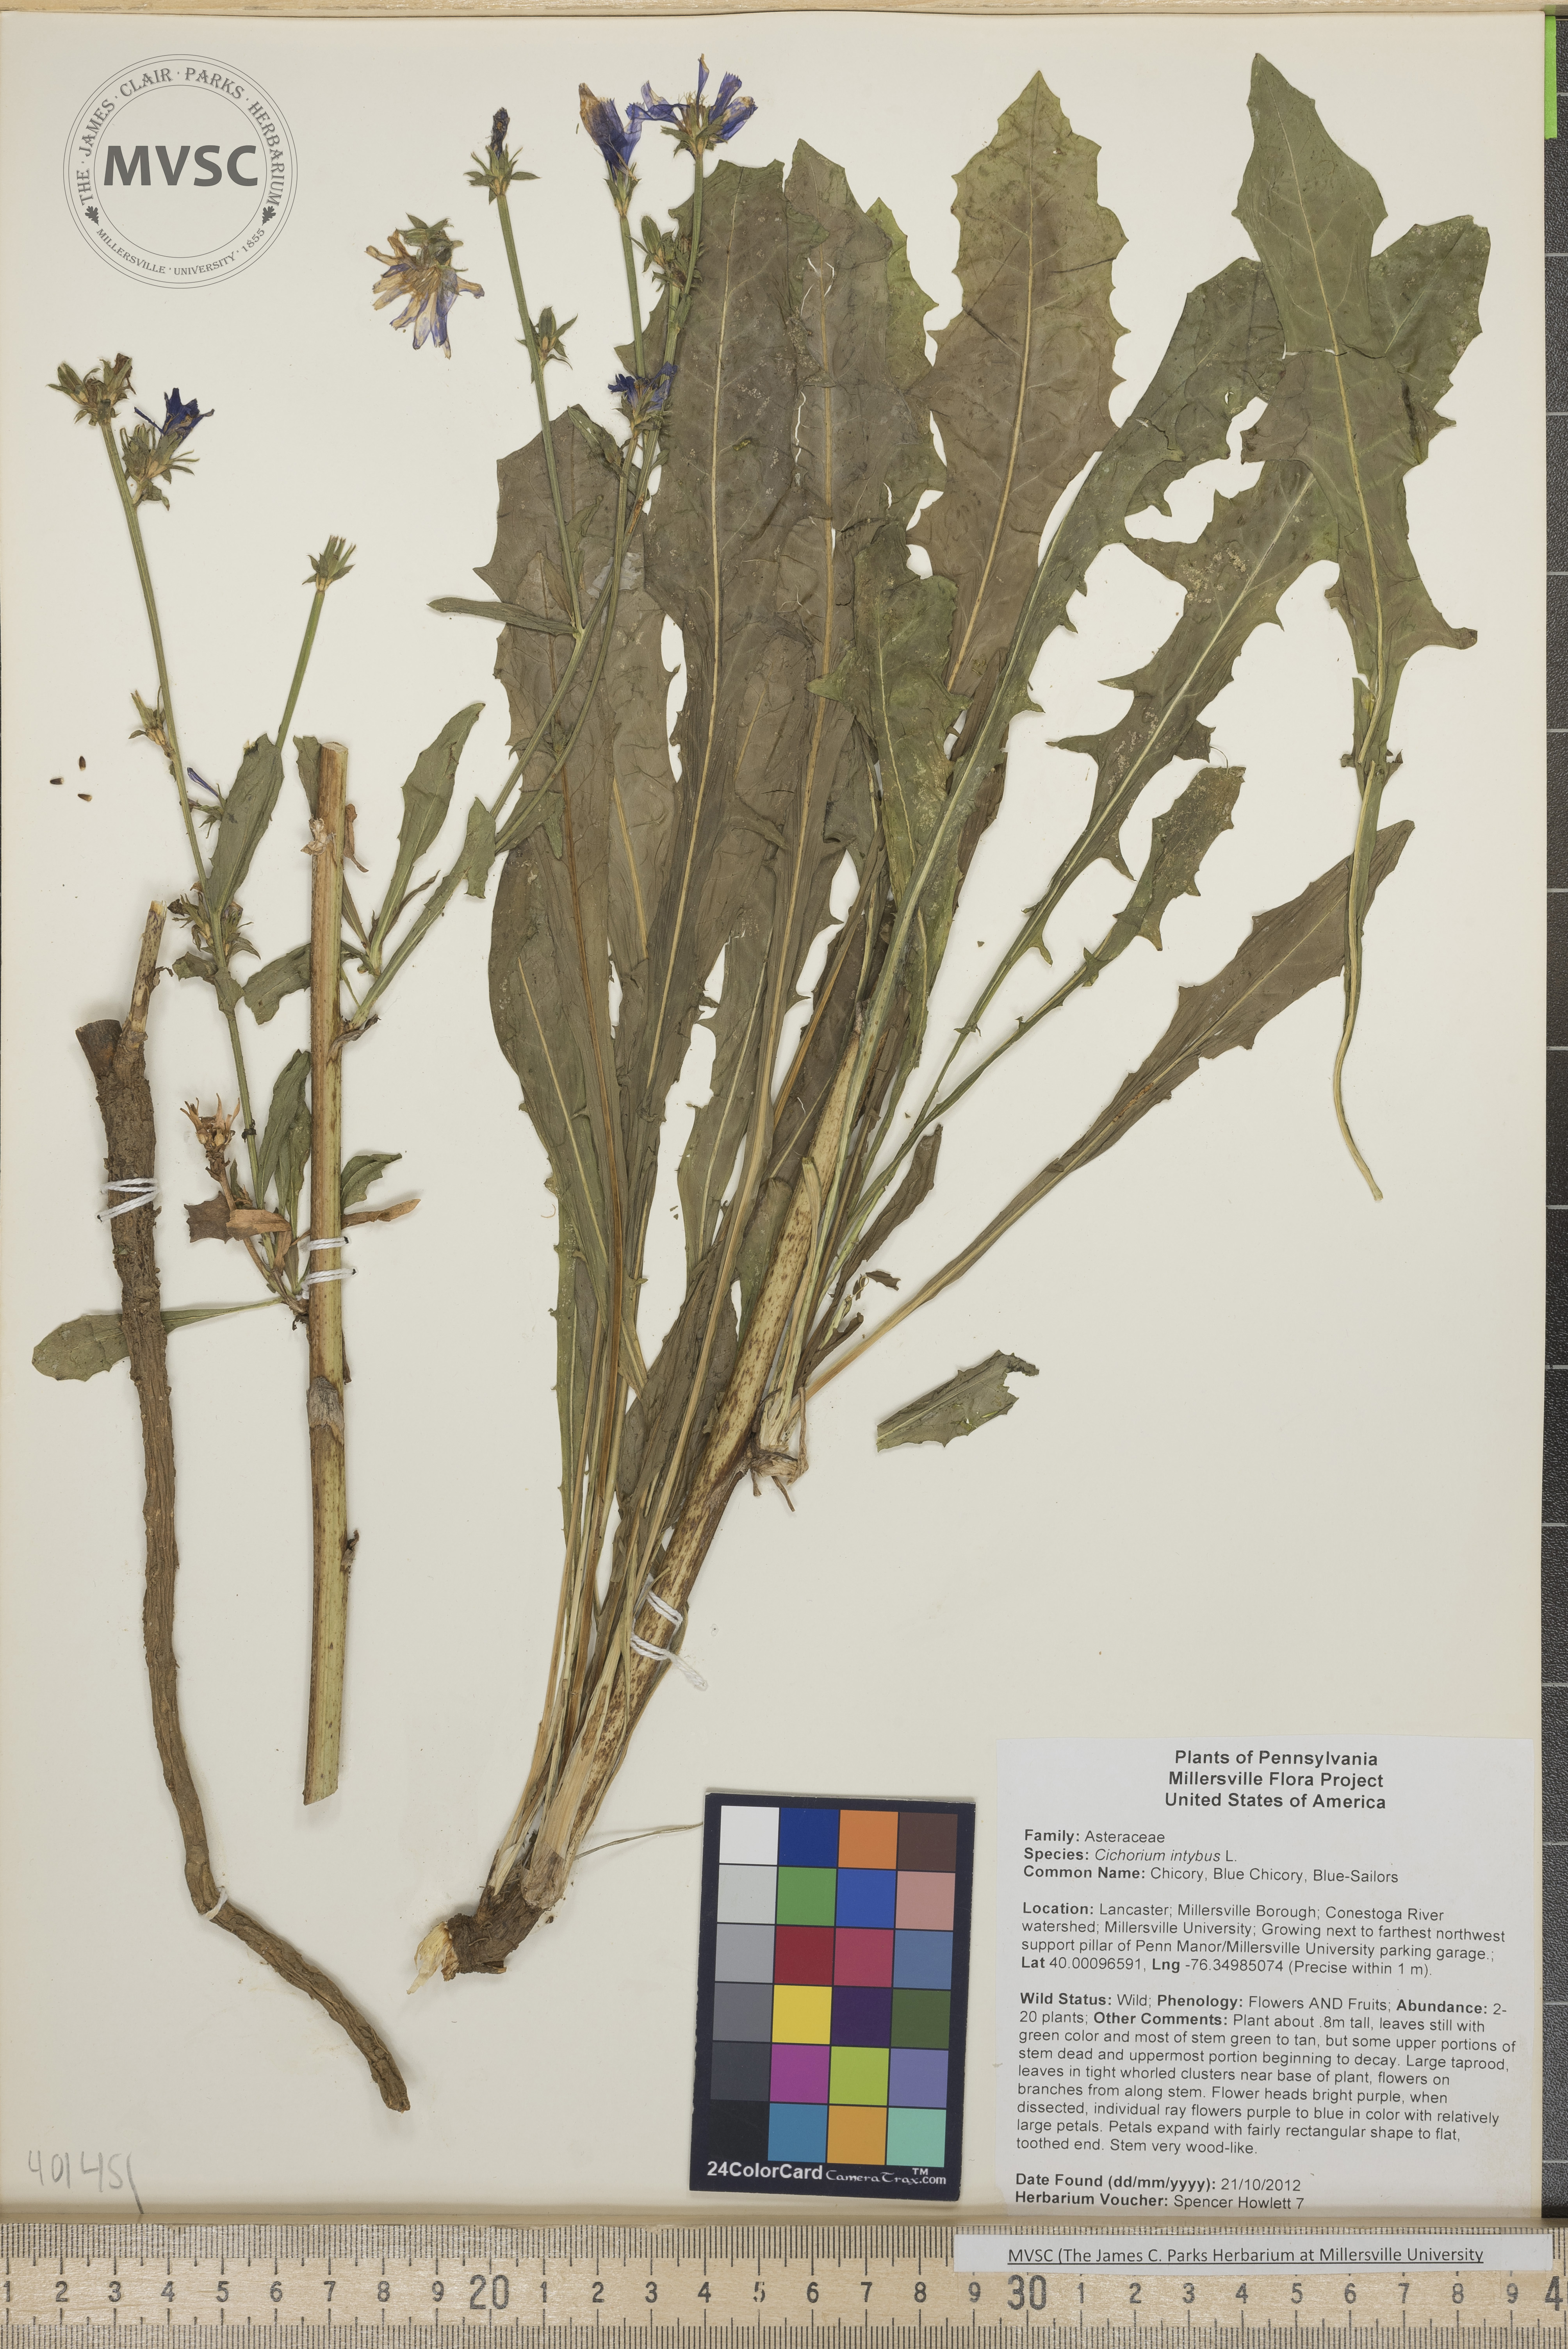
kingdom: Plantae
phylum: Tracheophyta
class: Magnoliopsida
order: Asterales
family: Asteraceae
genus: Cichorium
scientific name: Cichorium intybus
